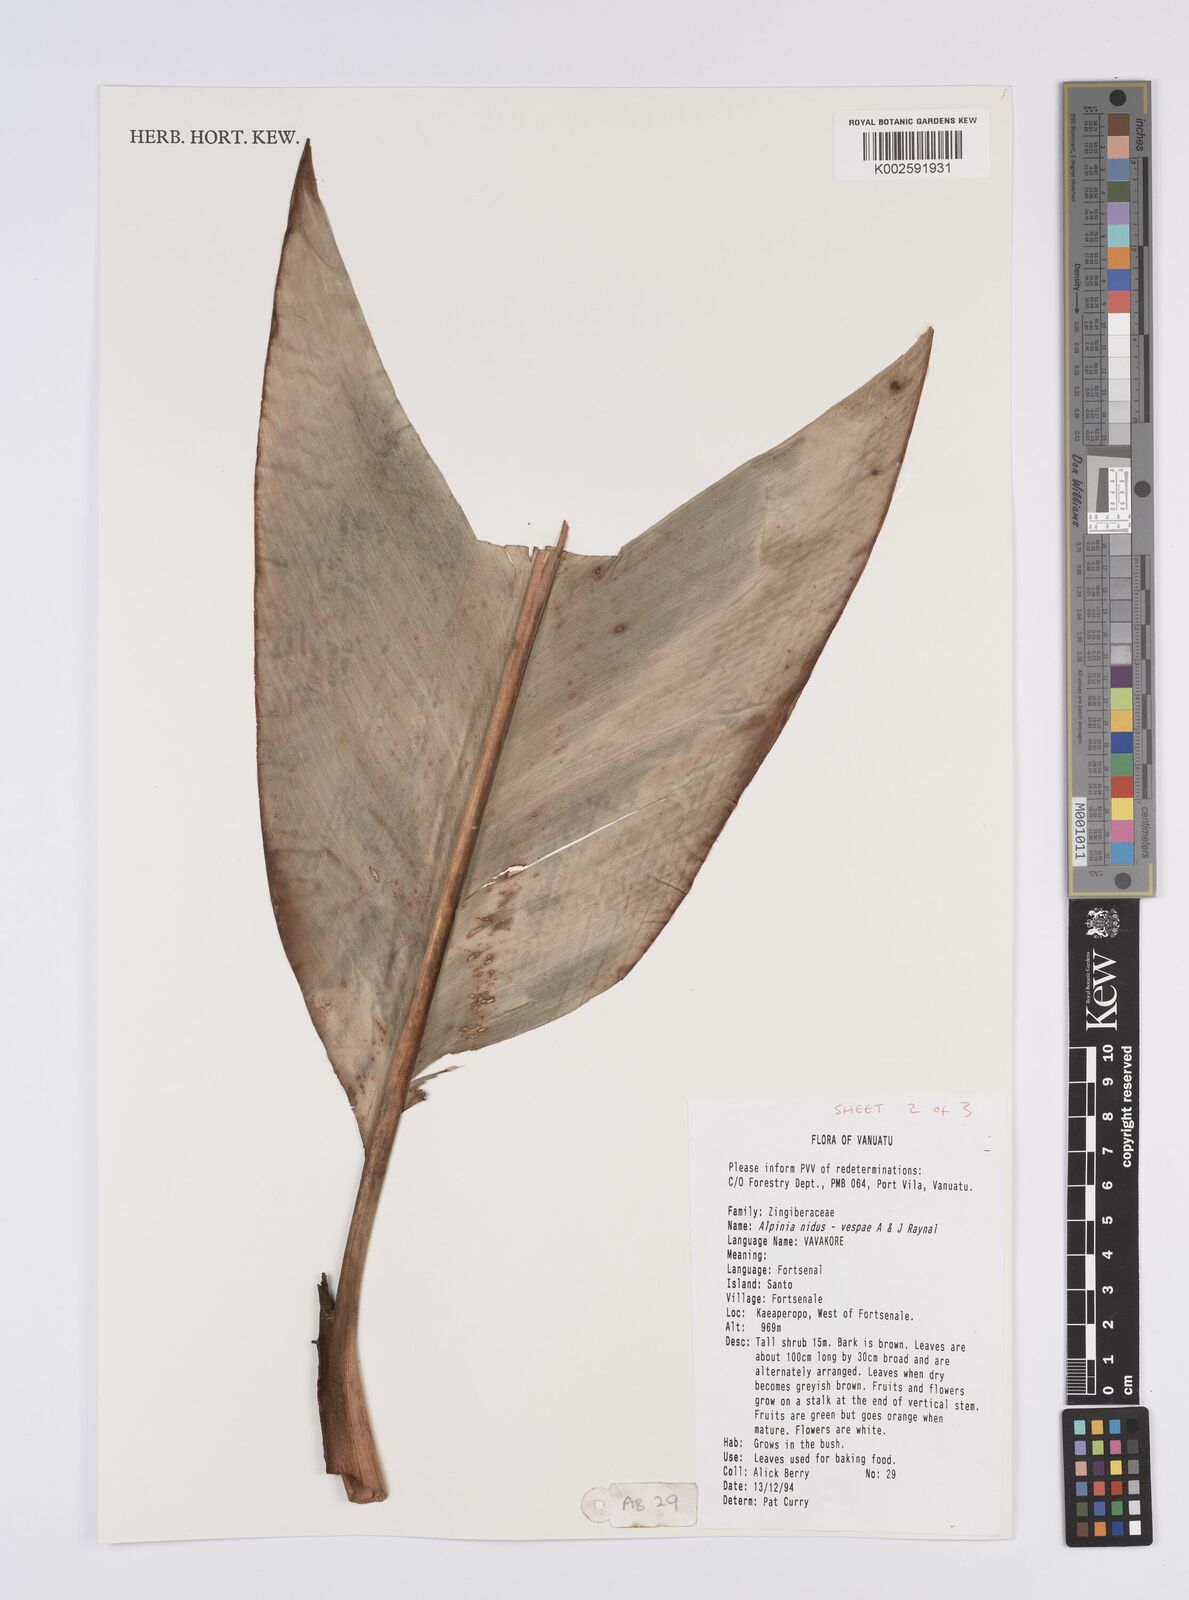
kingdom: Plantae
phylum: Tracheophyta
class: Liliopsida
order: Zingiberales
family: Zingiberaceae
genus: Alpinia
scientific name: Alpinia nidus-vespae
